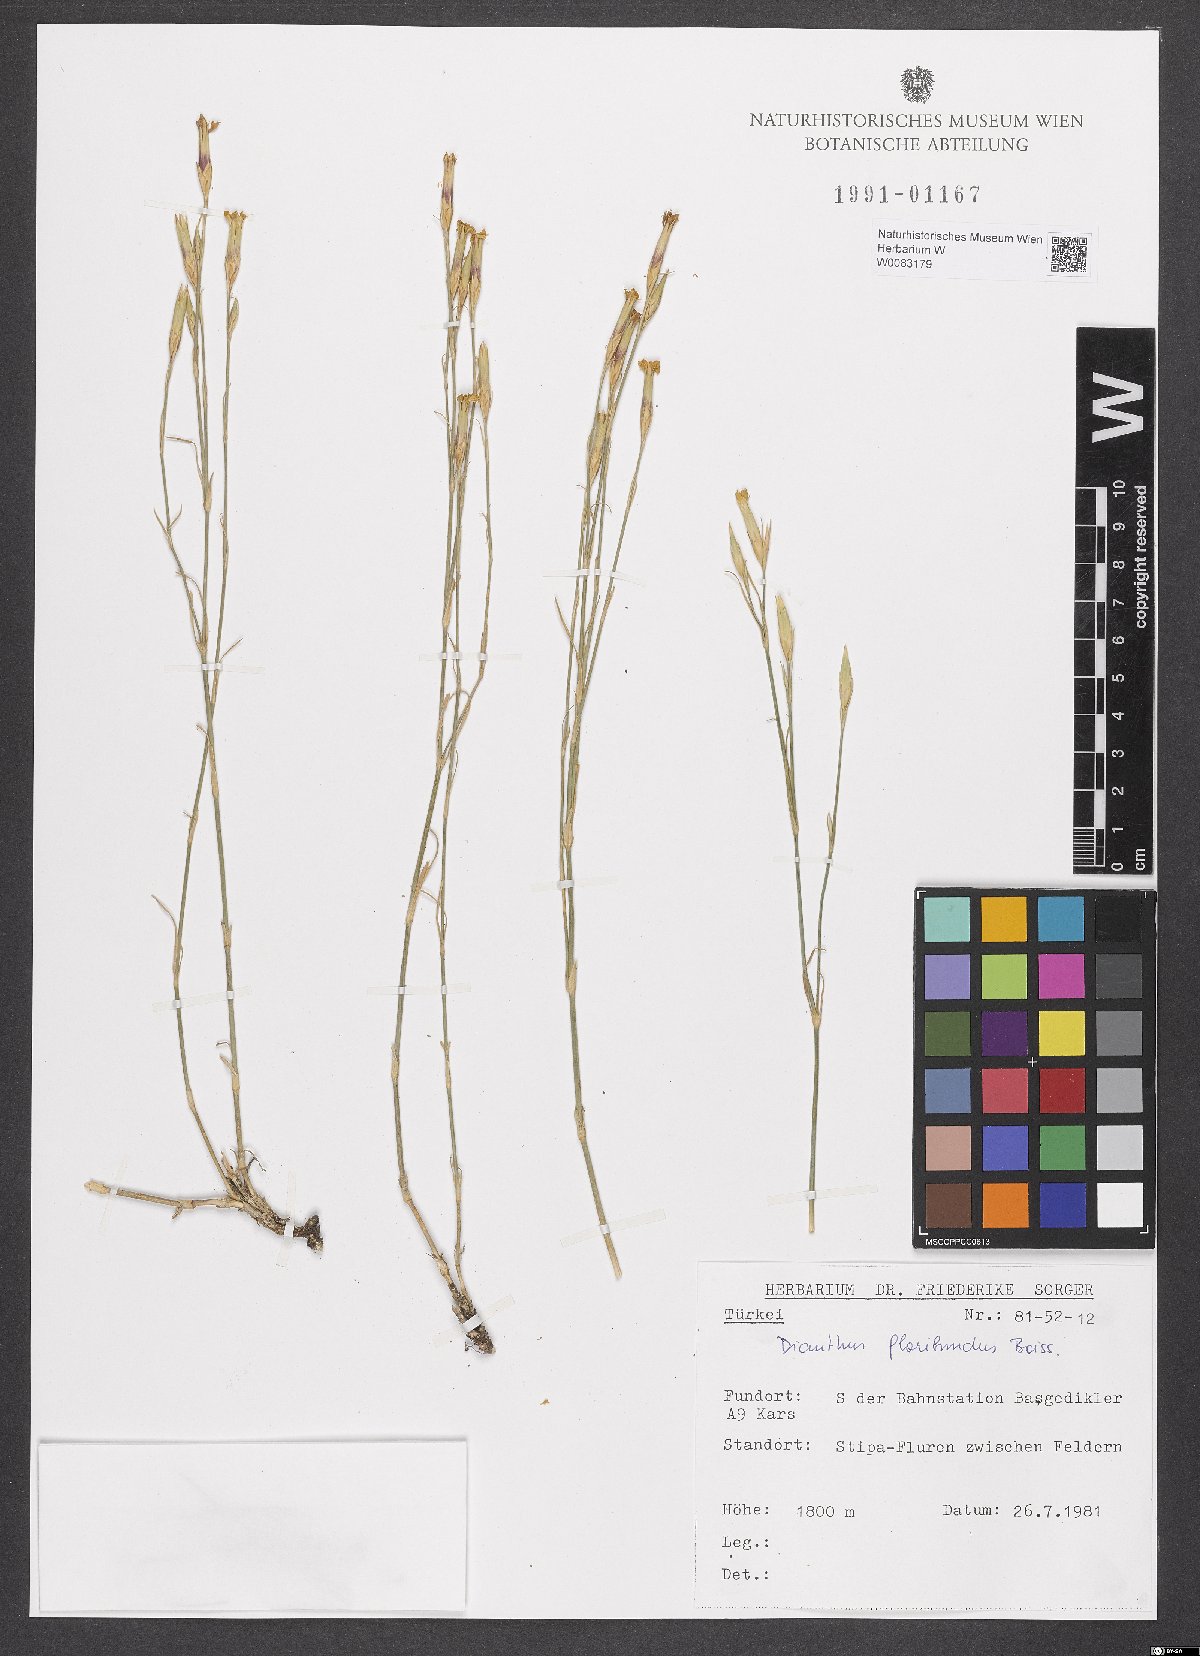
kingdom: Plantae
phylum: Tracheophyta
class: Magnoliopsida
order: Caryophyllales
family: Caryophyllaceae
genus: Dianthus
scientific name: Dianthus floribundus
